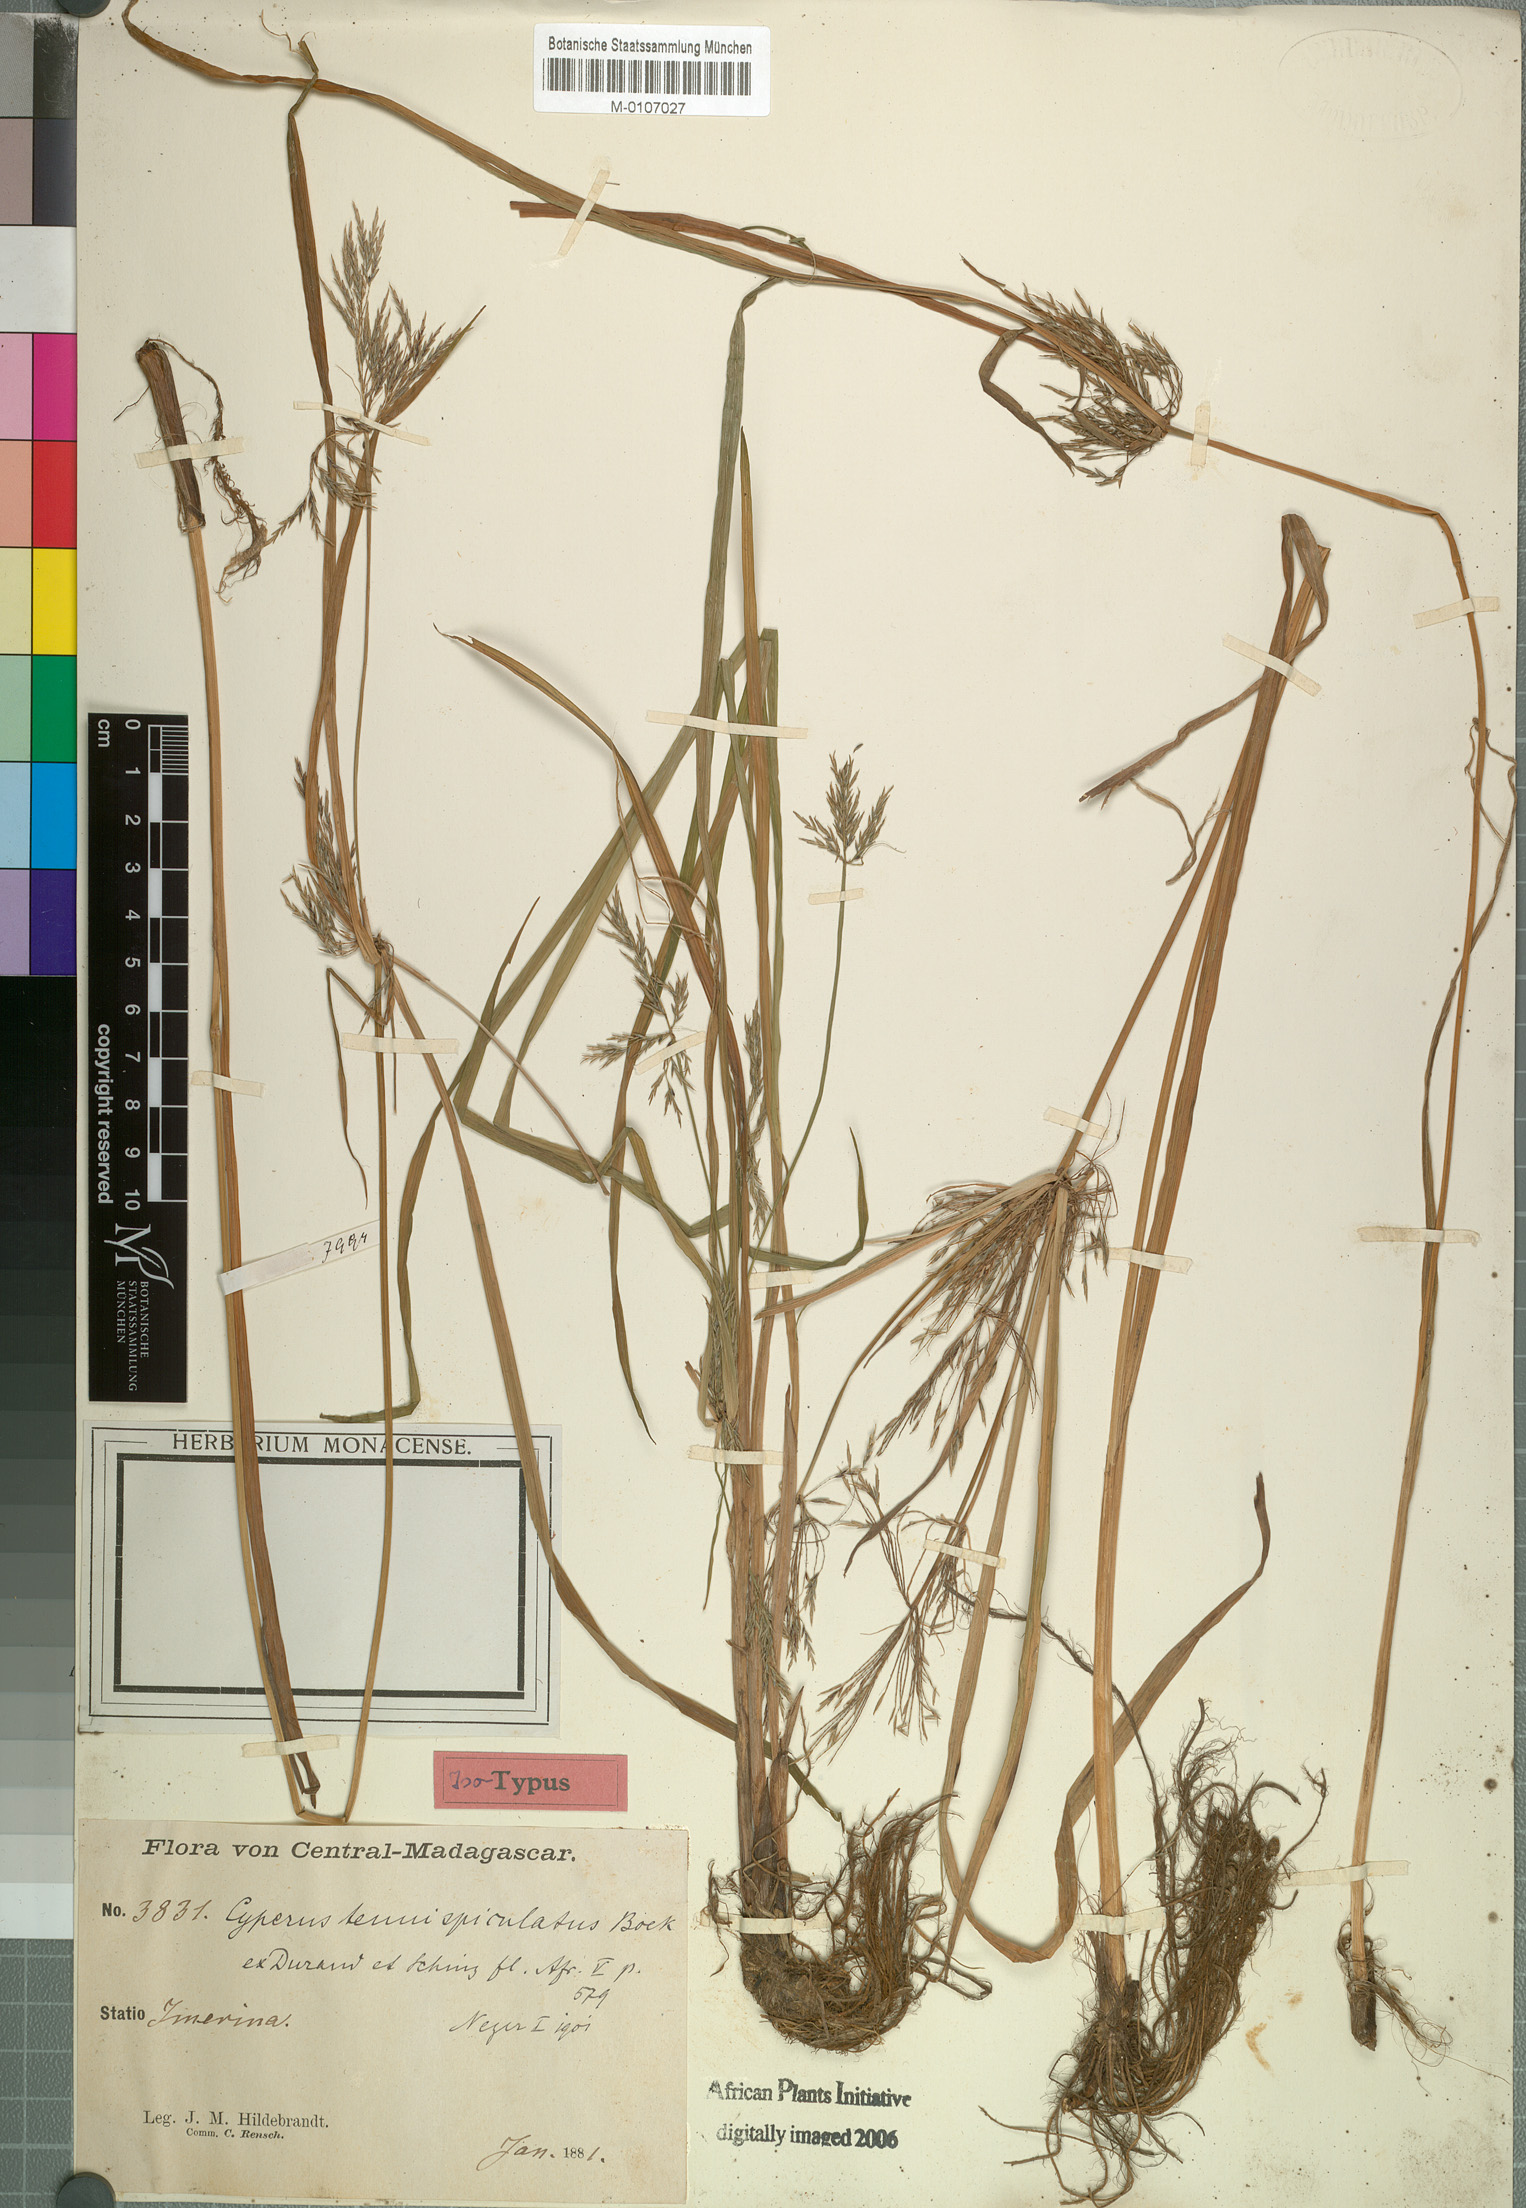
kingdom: Plantae
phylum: Tracheophyta
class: Liliopsida
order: Poales
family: Cyperaceae
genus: Cyperus
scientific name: Cyperus tenuispiculatus
